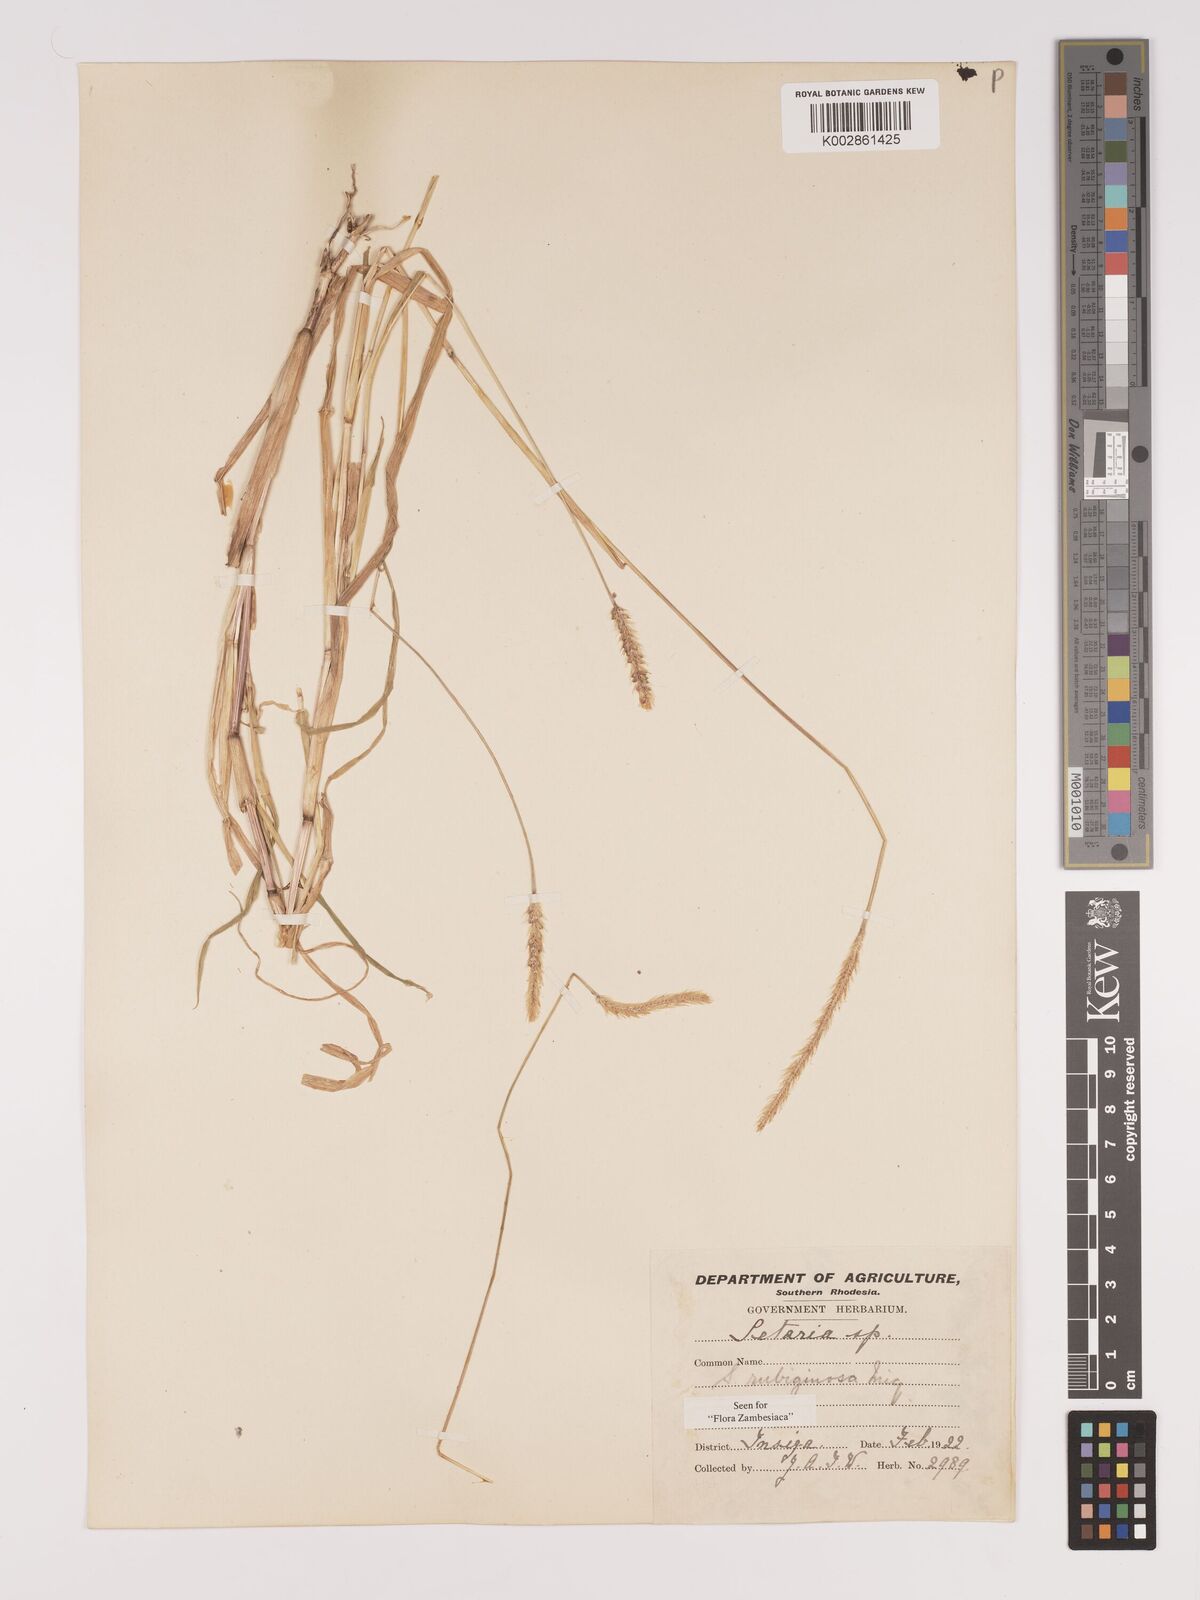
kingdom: Plantae
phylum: Tracheophyta
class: Liliopsida
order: Poales
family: Poaceae
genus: Setaria
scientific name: Setaria pumila
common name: Yellow bristle-grass
